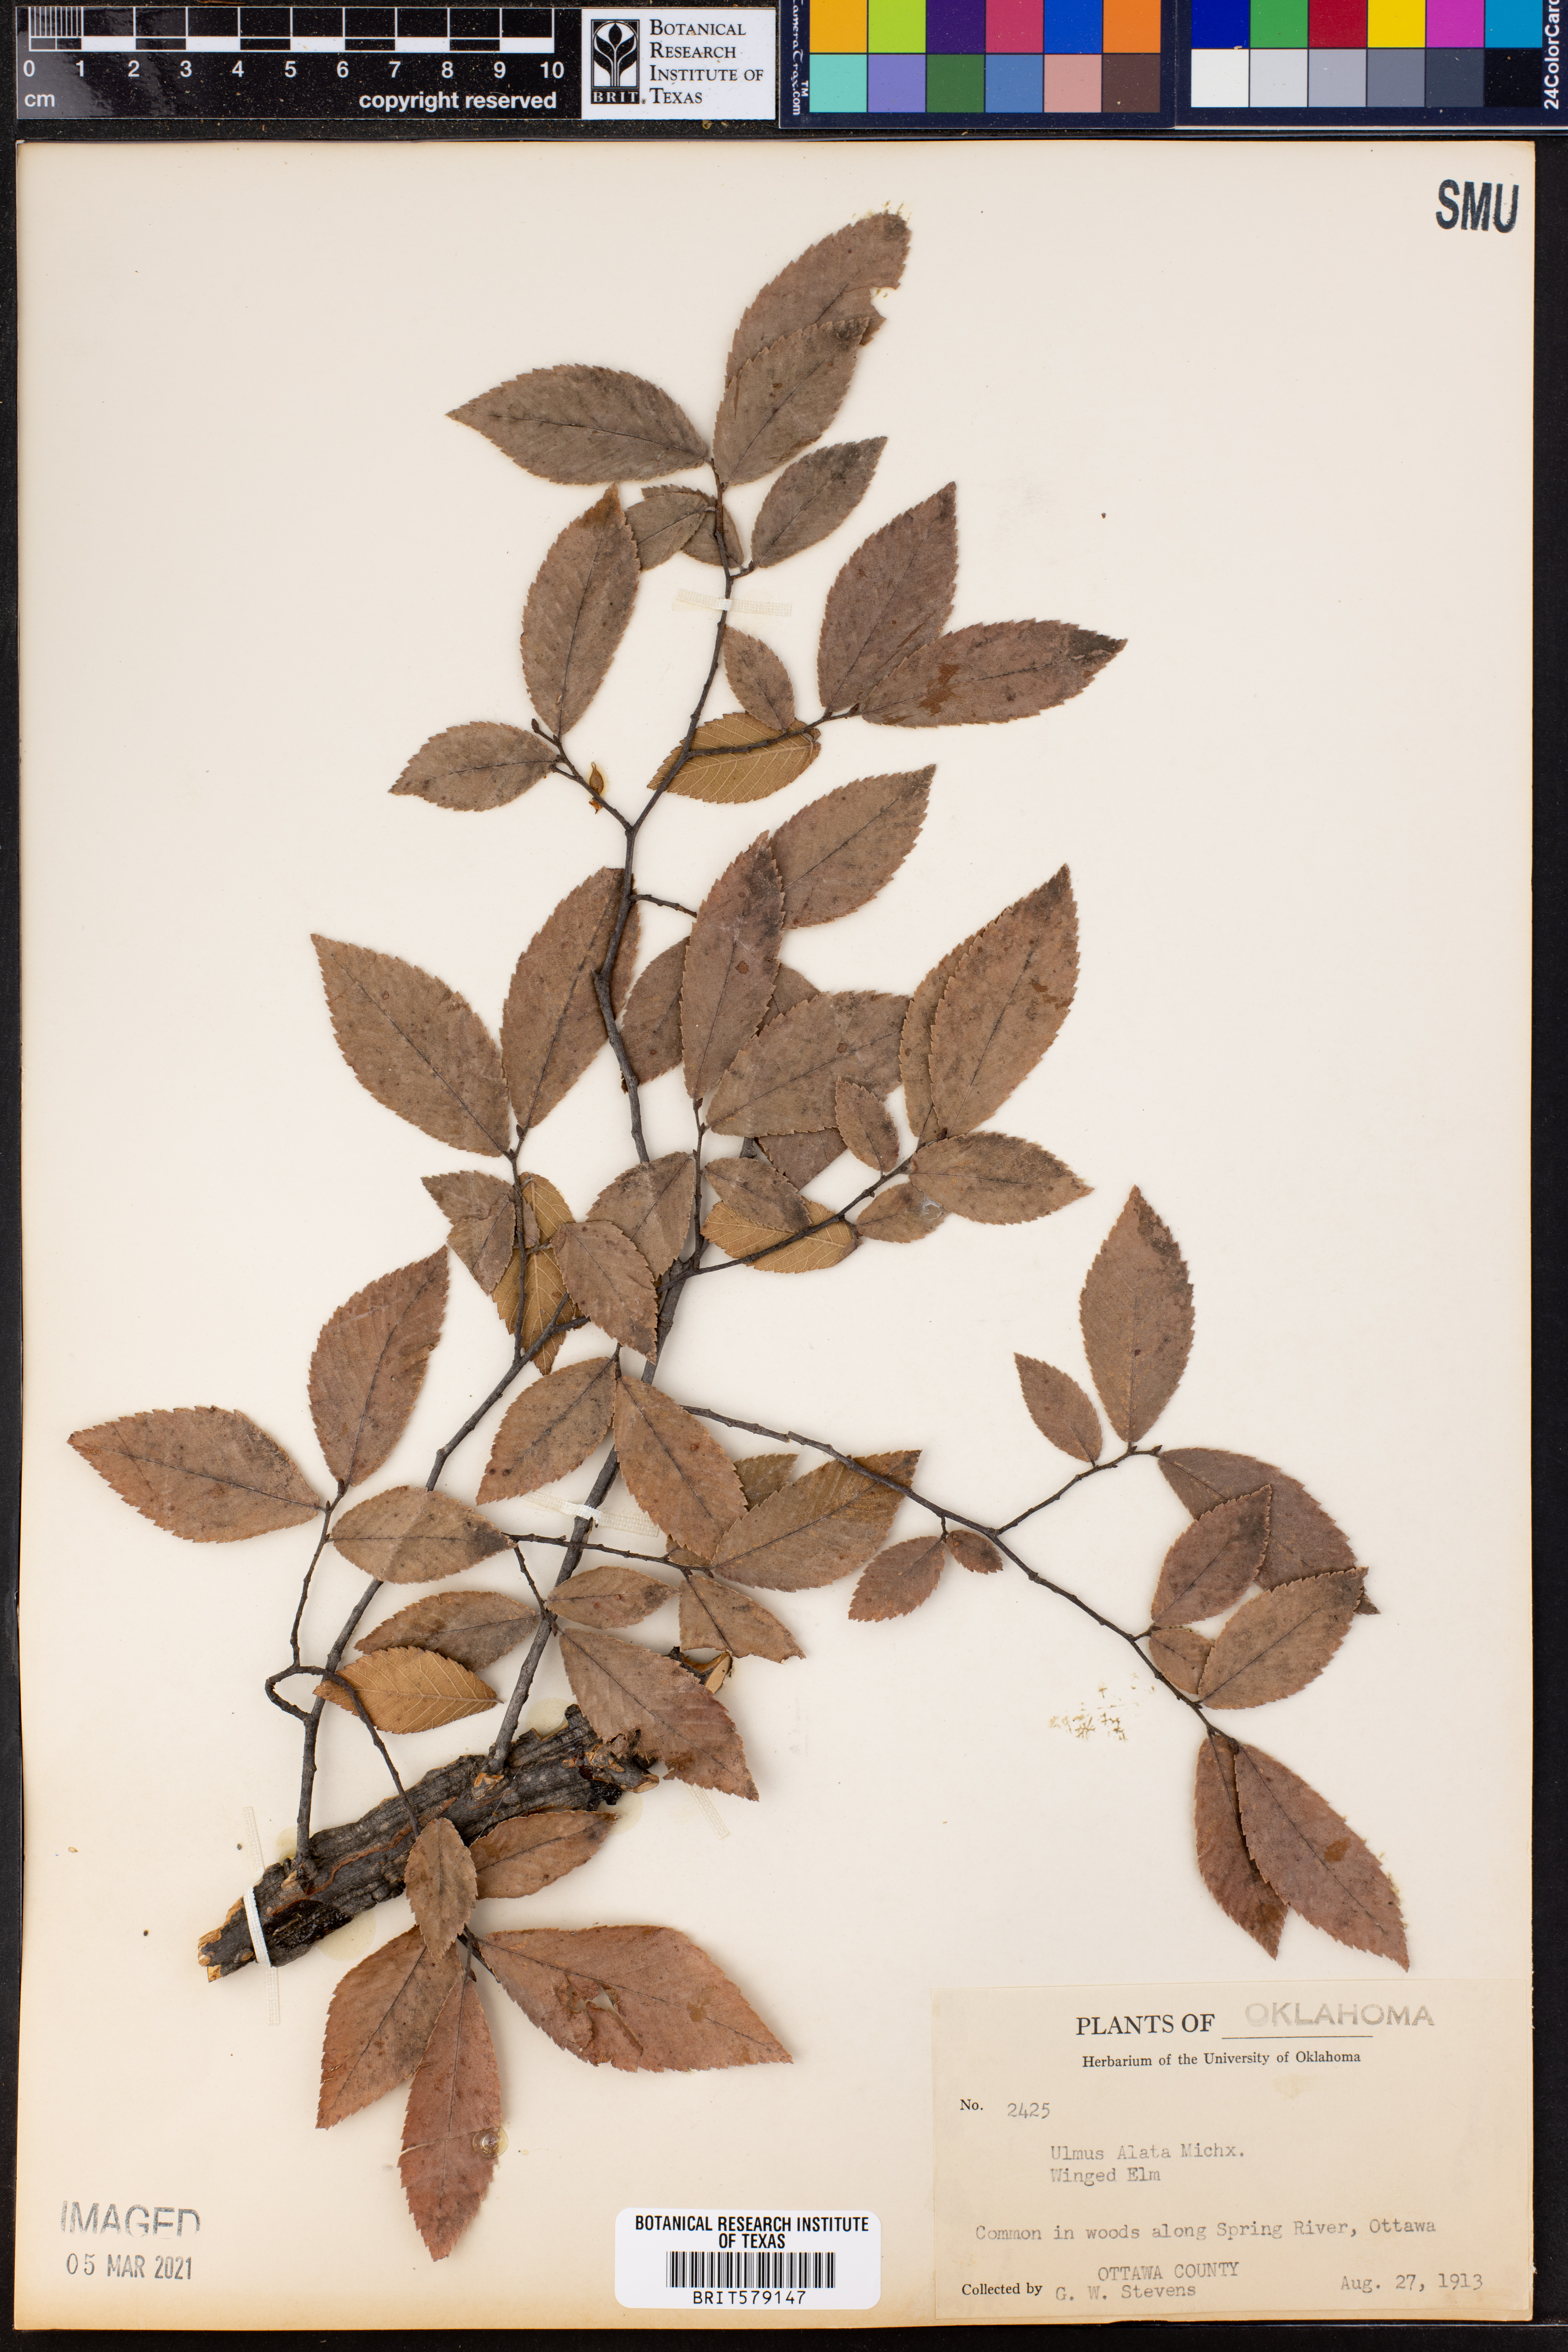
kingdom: Plantae
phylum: Tracheophyta
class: Magnoliopsida
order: Rosales
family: Ulmaceae
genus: Ulmus
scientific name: Ulmus alata
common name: Winged elm
